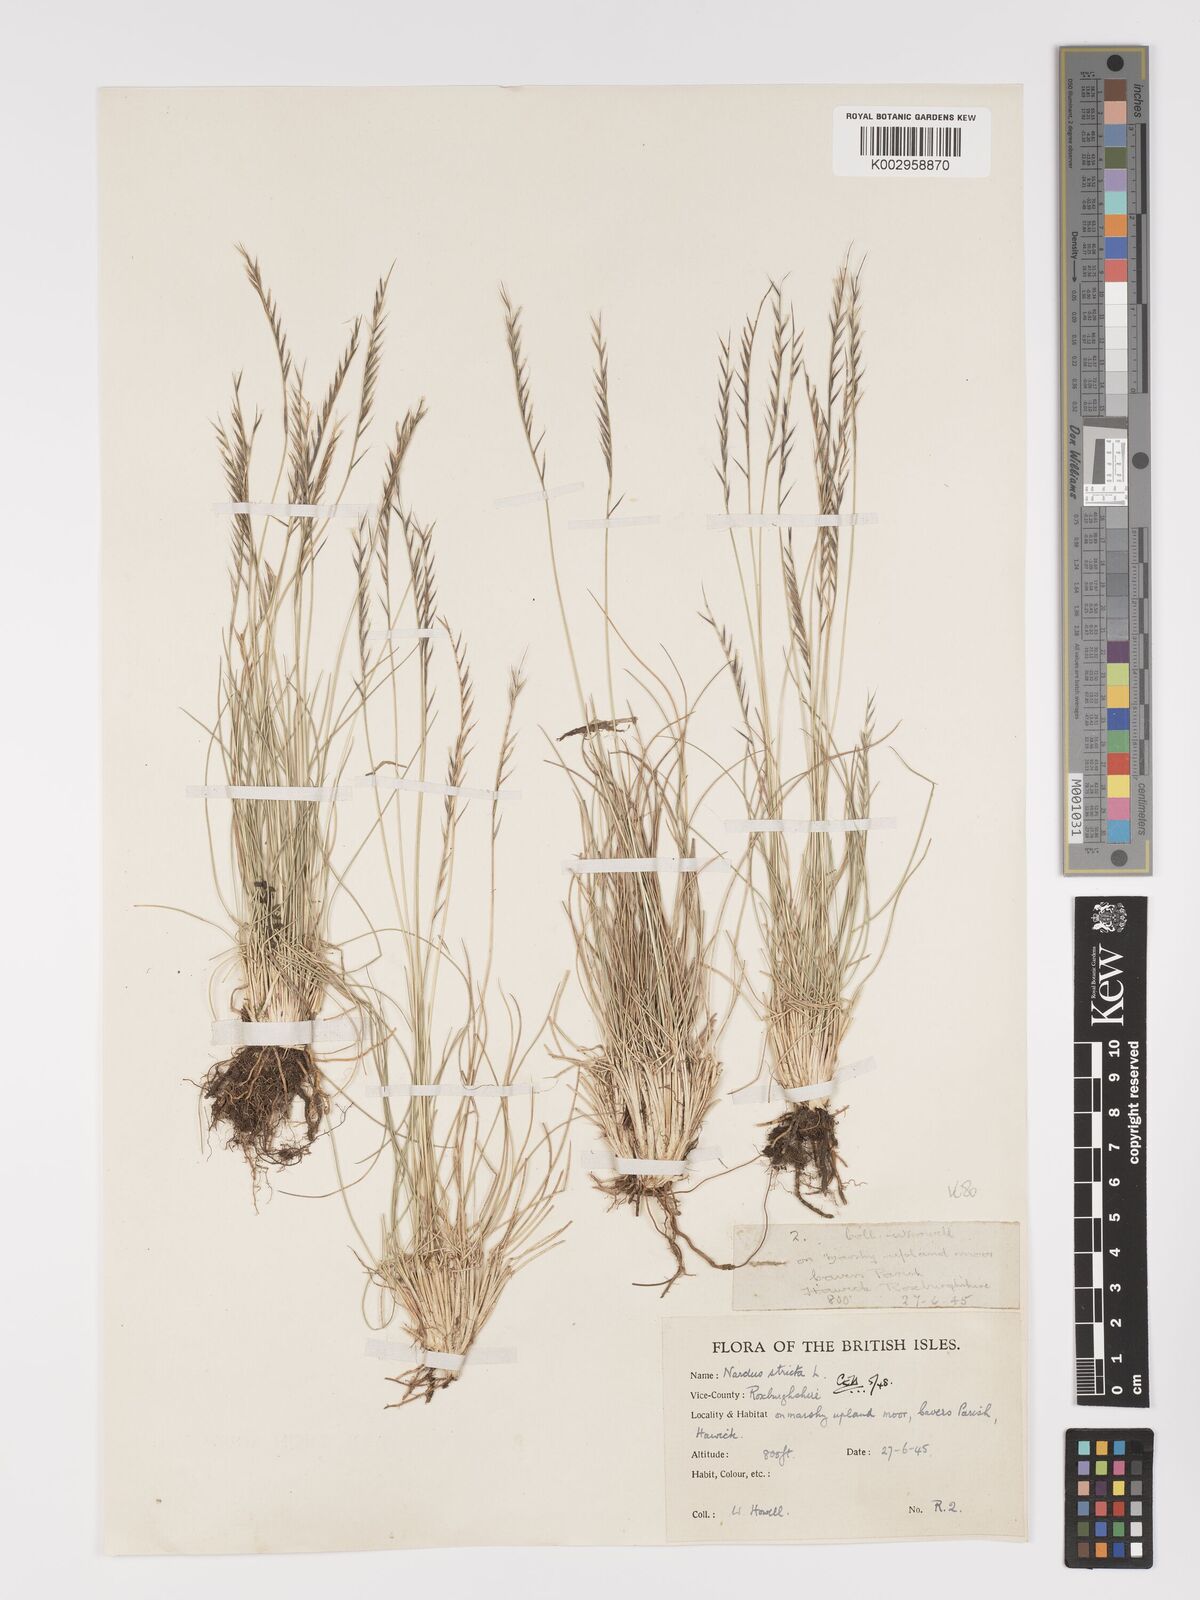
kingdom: Plantae
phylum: Tracheophyta
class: Liliopsida
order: Poales
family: Poaceae
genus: Nardus
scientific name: Nardus stricta
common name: Mat-grass
